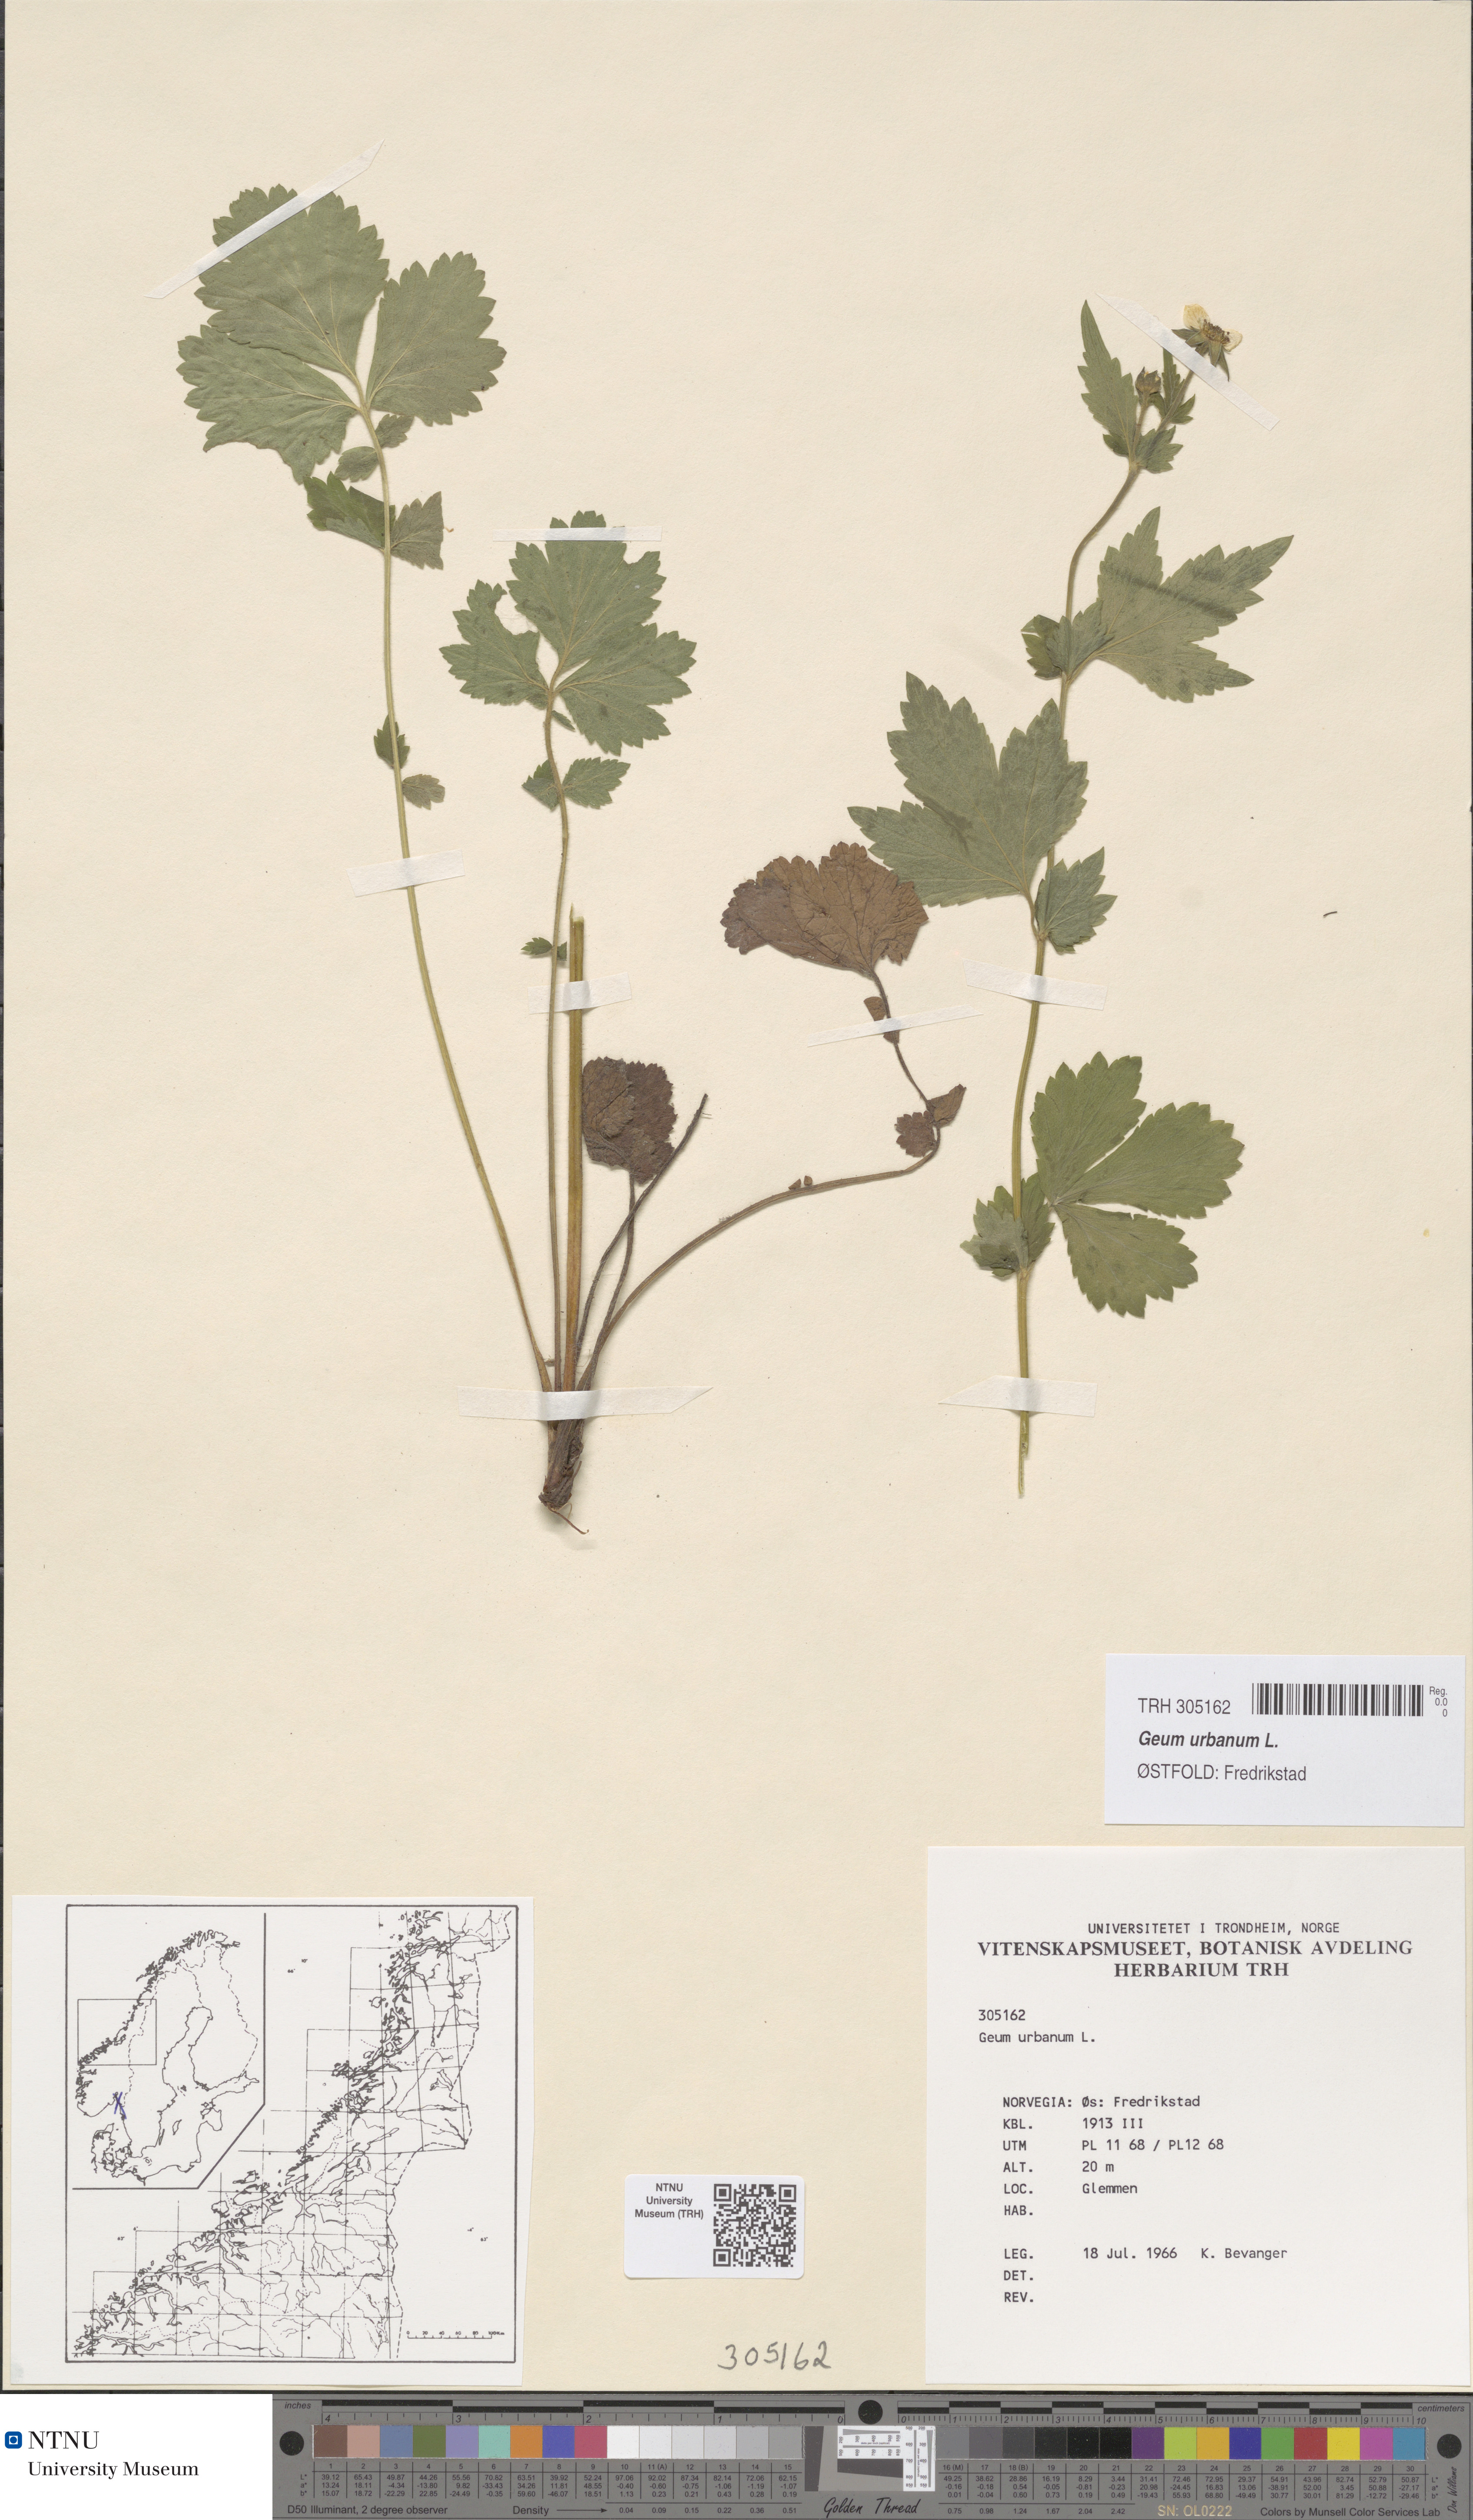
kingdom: Plantae
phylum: Tracheophyta
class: Magnoliopsida
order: Rosales
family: Rosaceae
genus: Geum
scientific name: Geum urbanum
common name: Wood avens
